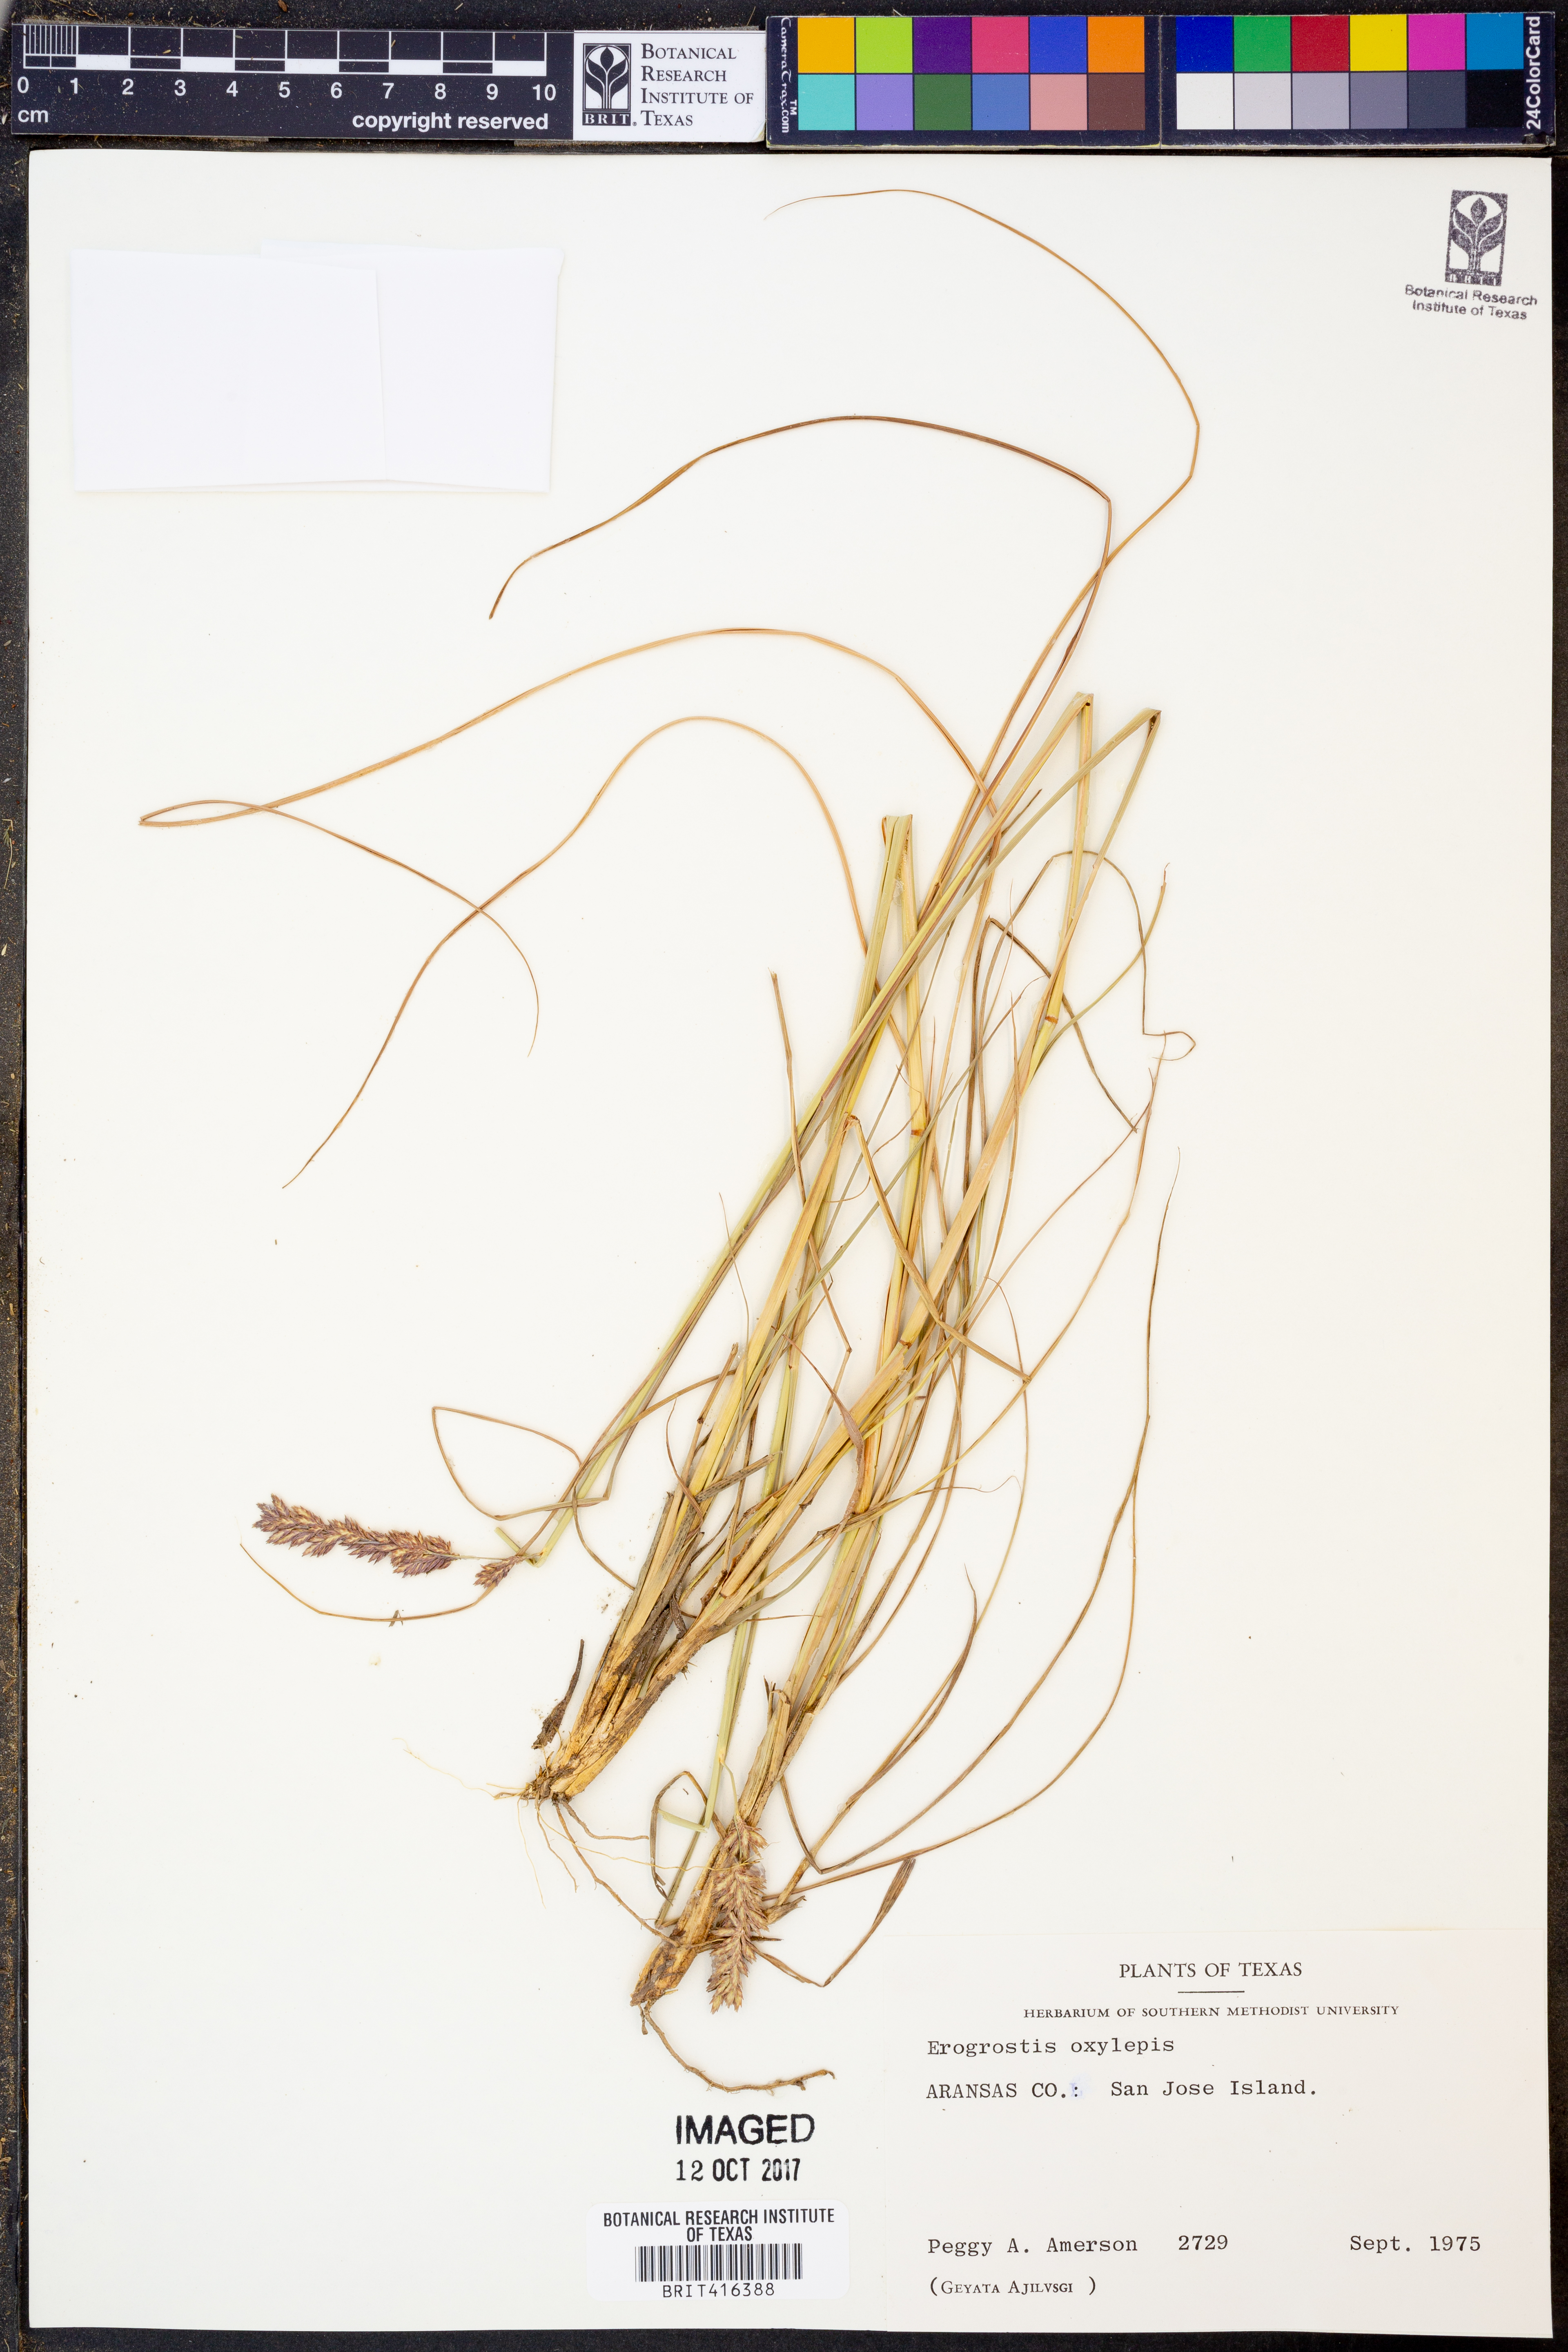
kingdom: Plantae
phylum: Tracheophyta
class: Liliopsida
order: Poales
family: Poaceae
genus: Eragrostis
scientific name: Eragrostis secundiflora
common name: Red love grass
